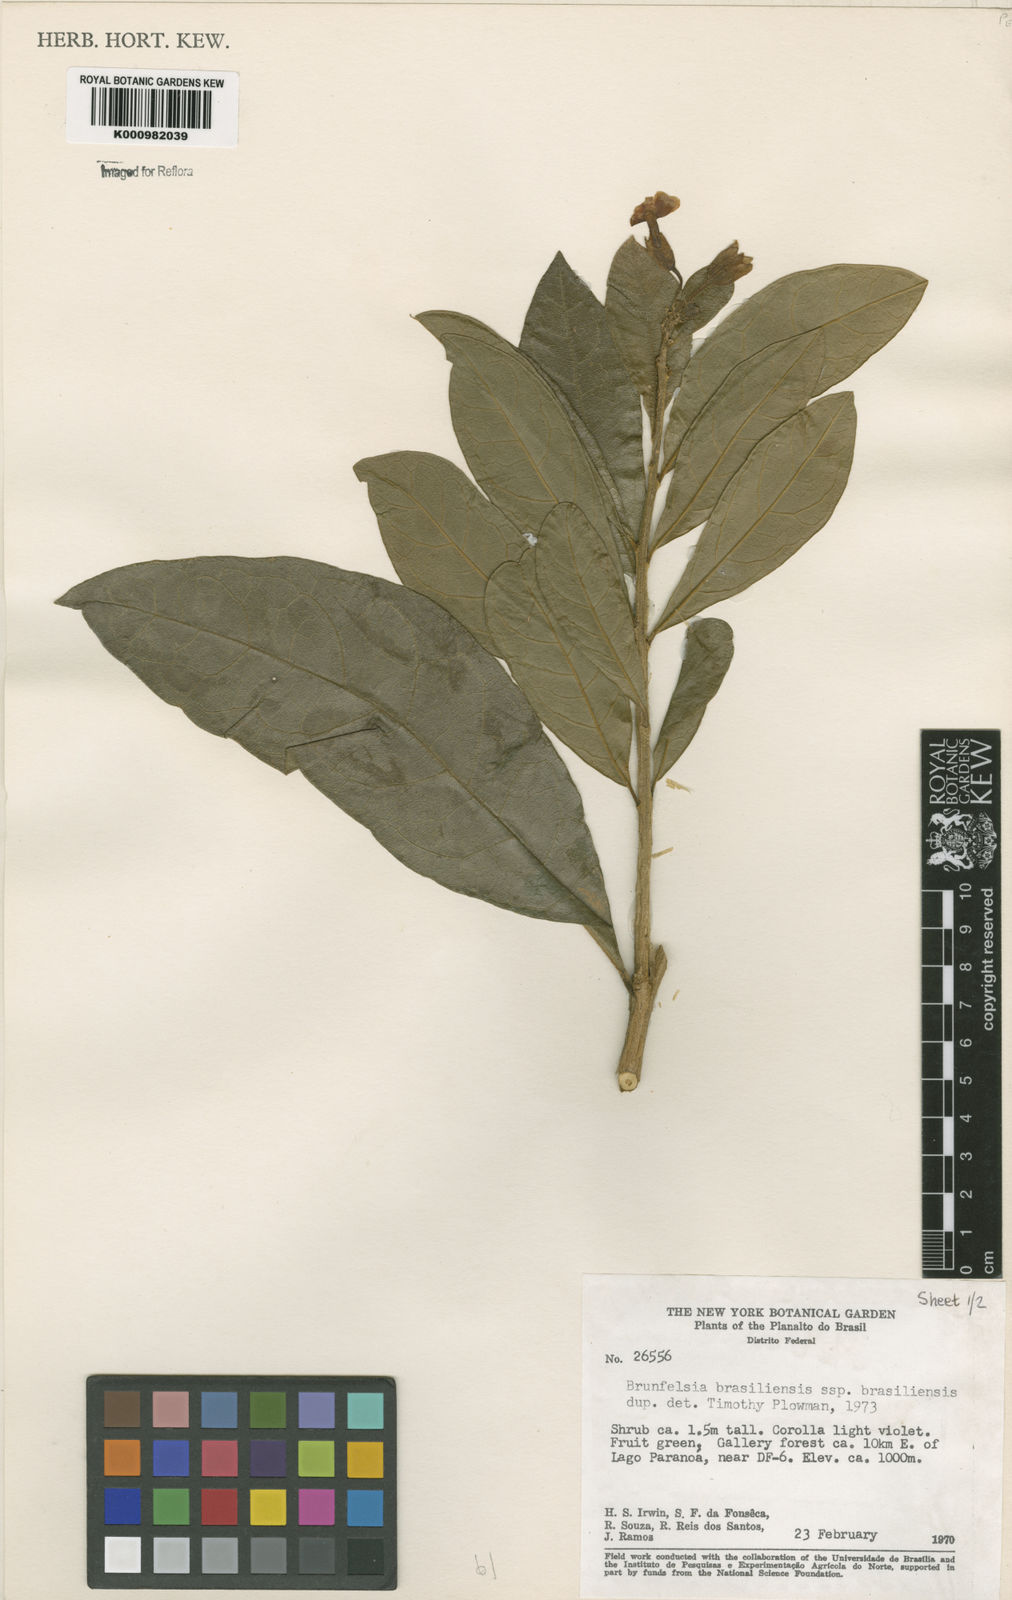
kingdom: Plantae
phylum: Tracheophyta
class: Magnoliopsida
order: Solanales
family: Solanaceae
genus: Brunfelsia
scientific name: Brunfelsia brasiliensis
